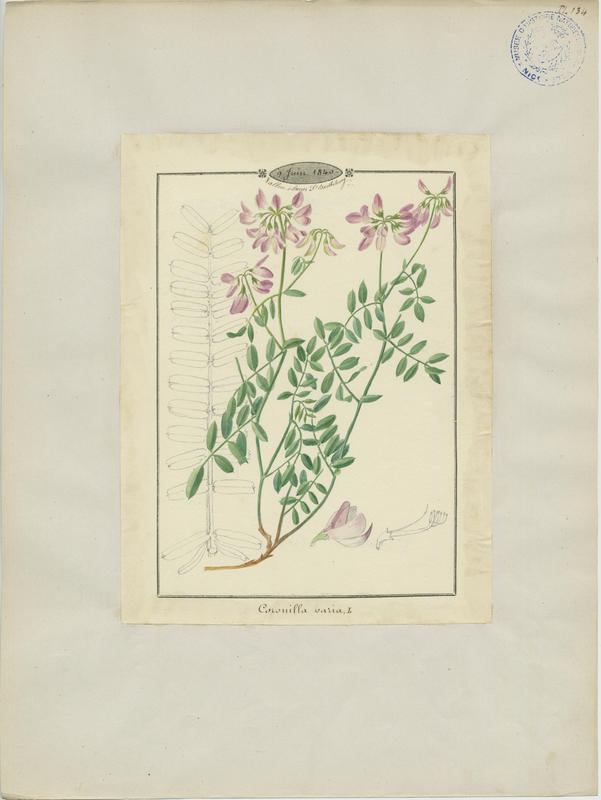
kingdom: Plantae
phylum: Tracheophyta
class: Magnoliopsida
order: Fabales
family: Fabaceae
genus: Coronilla
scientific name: Coronilla varia
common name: Crownvetch
